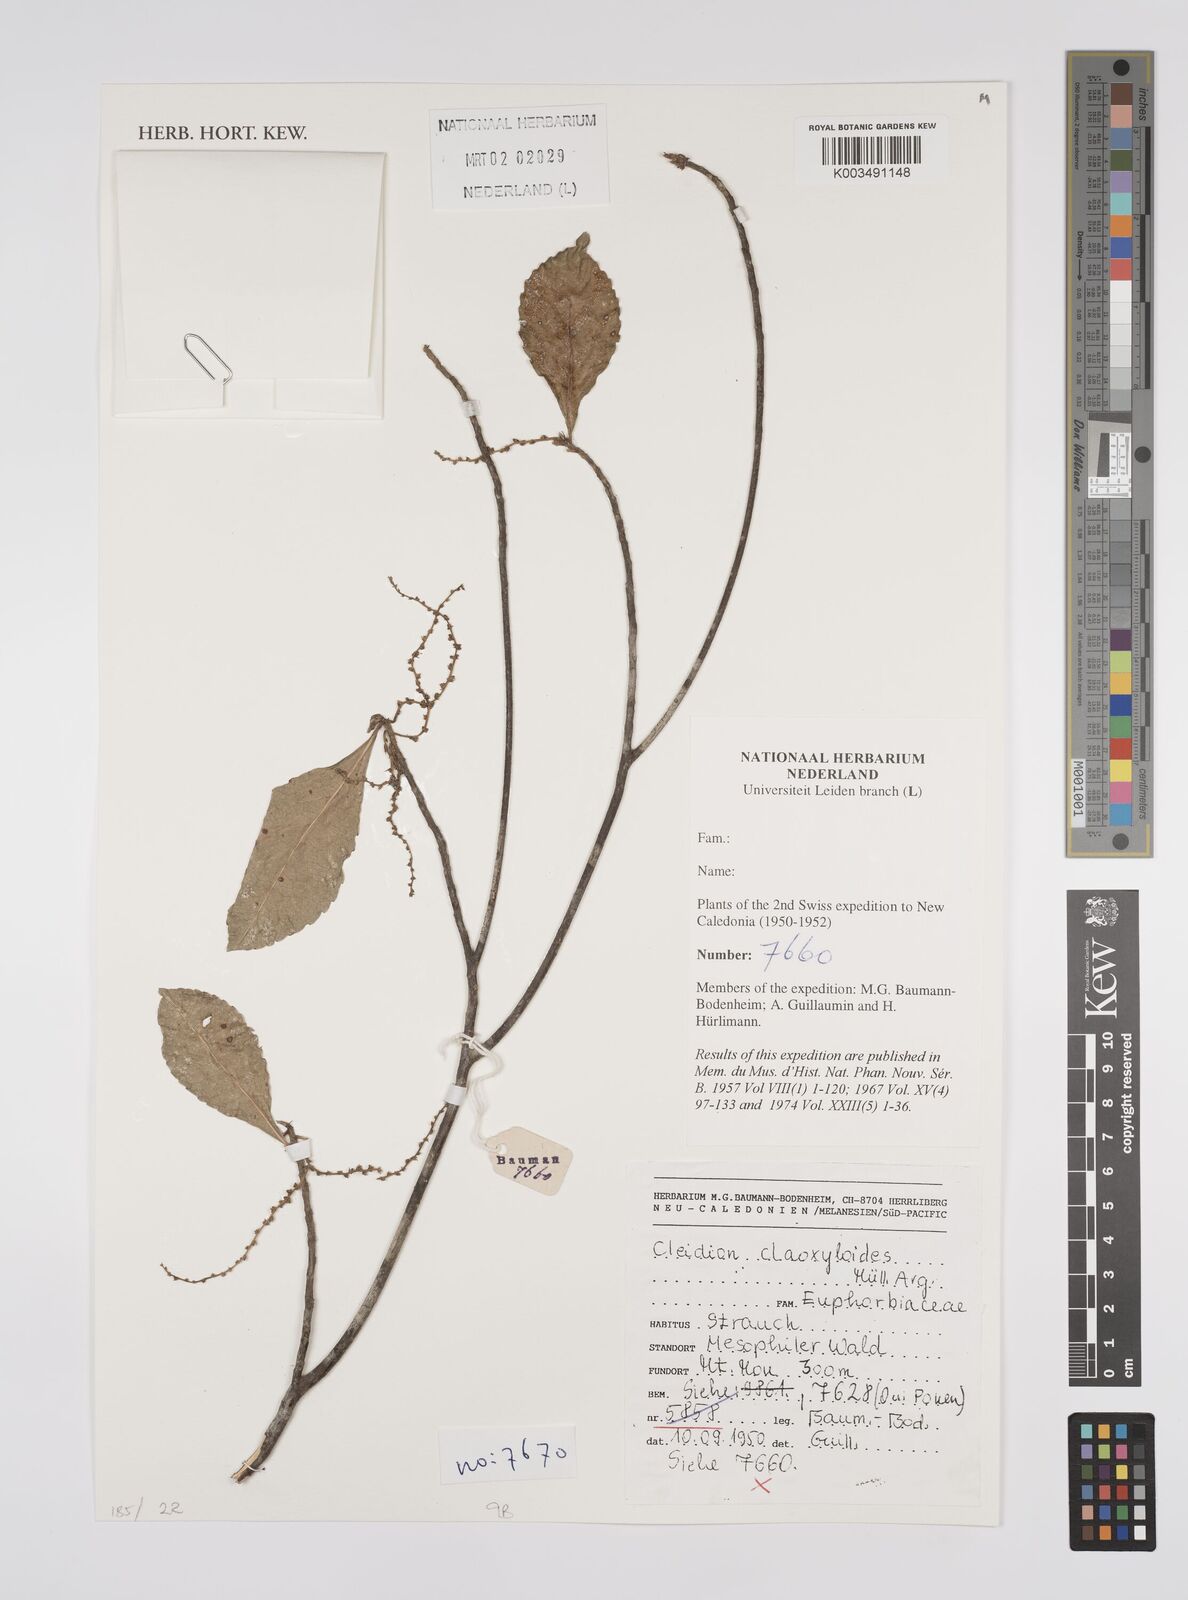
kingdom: Plantae
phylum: Tracheophyta
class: Magnoliopsida
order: Malpighiales
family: Euphorbiaceae
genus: Cleidion
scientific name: Cleidion claoxyloides
